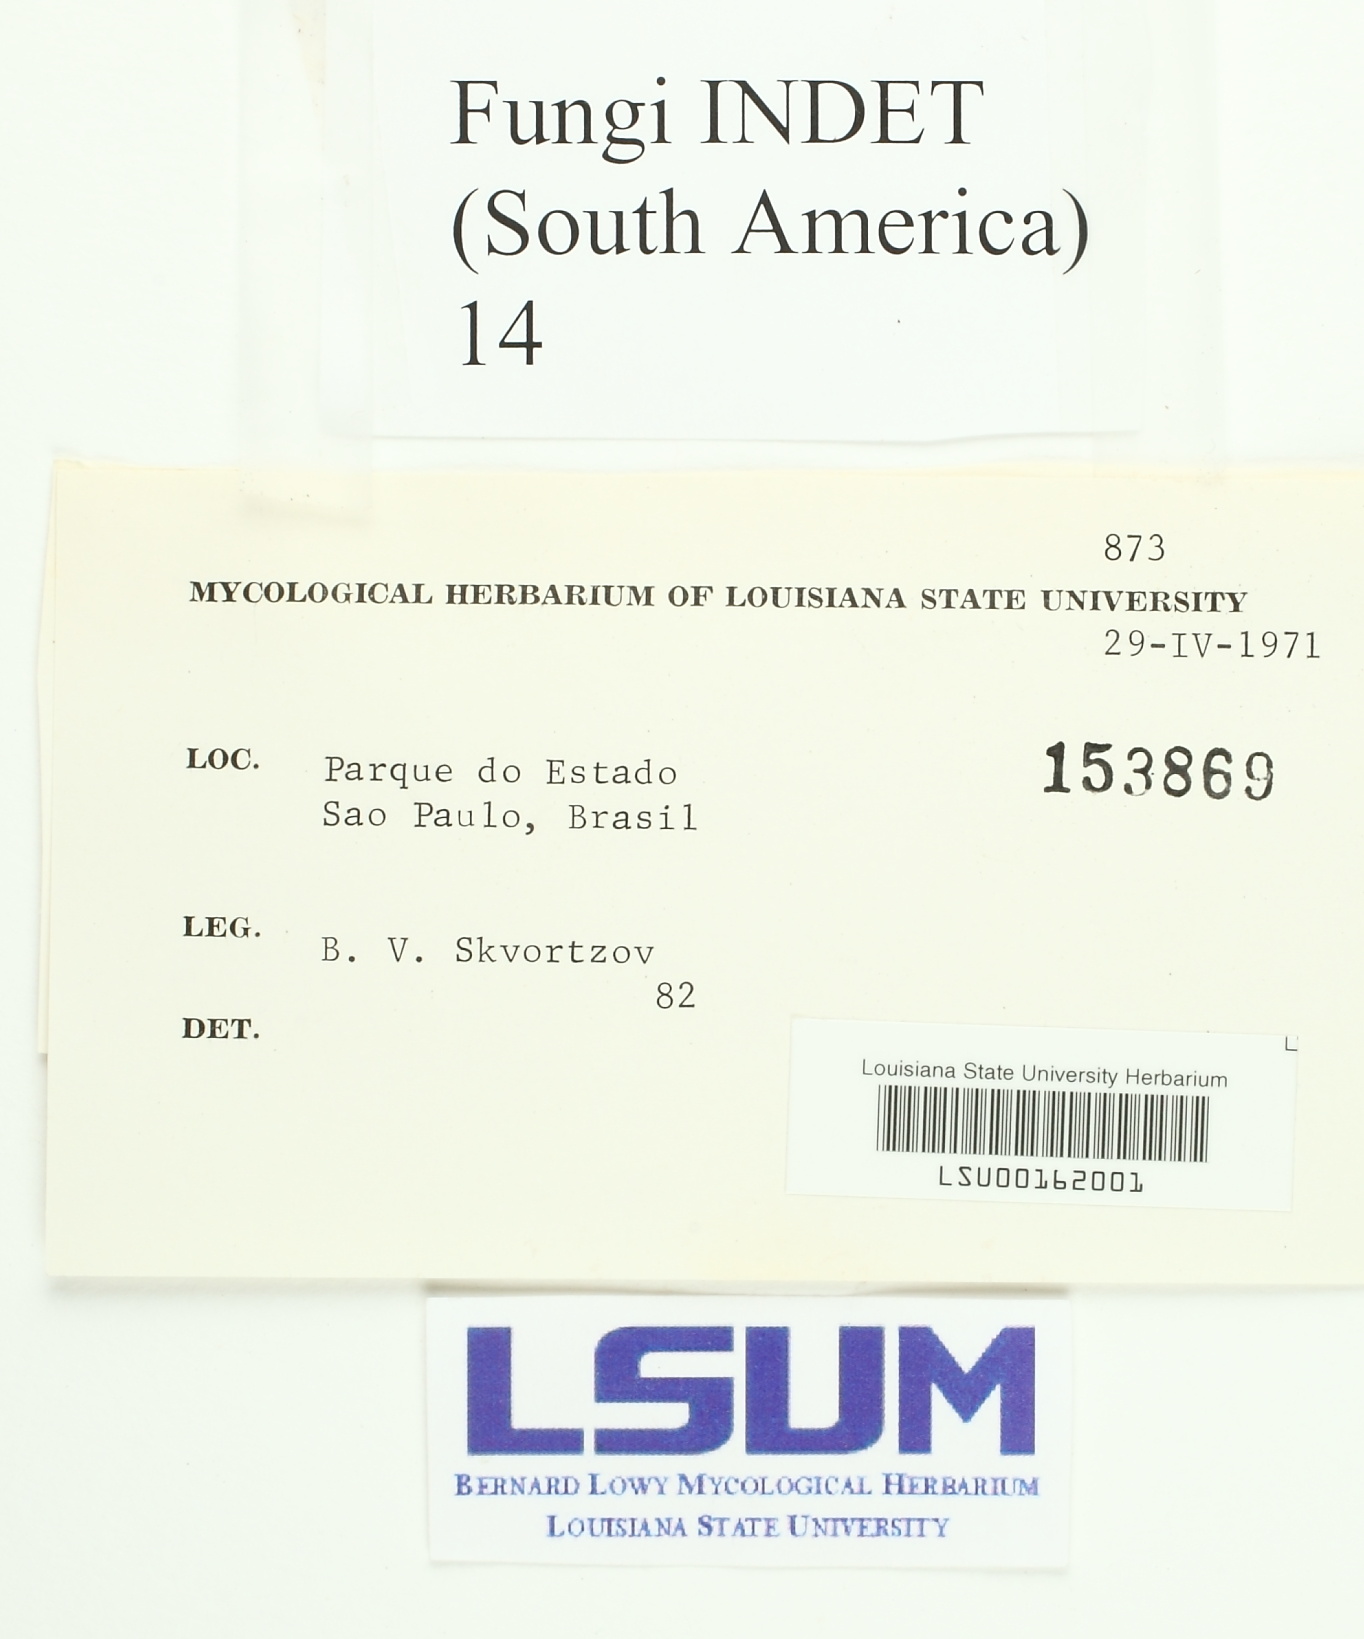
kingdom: Fungi
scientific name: Fungi
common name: Fungi
